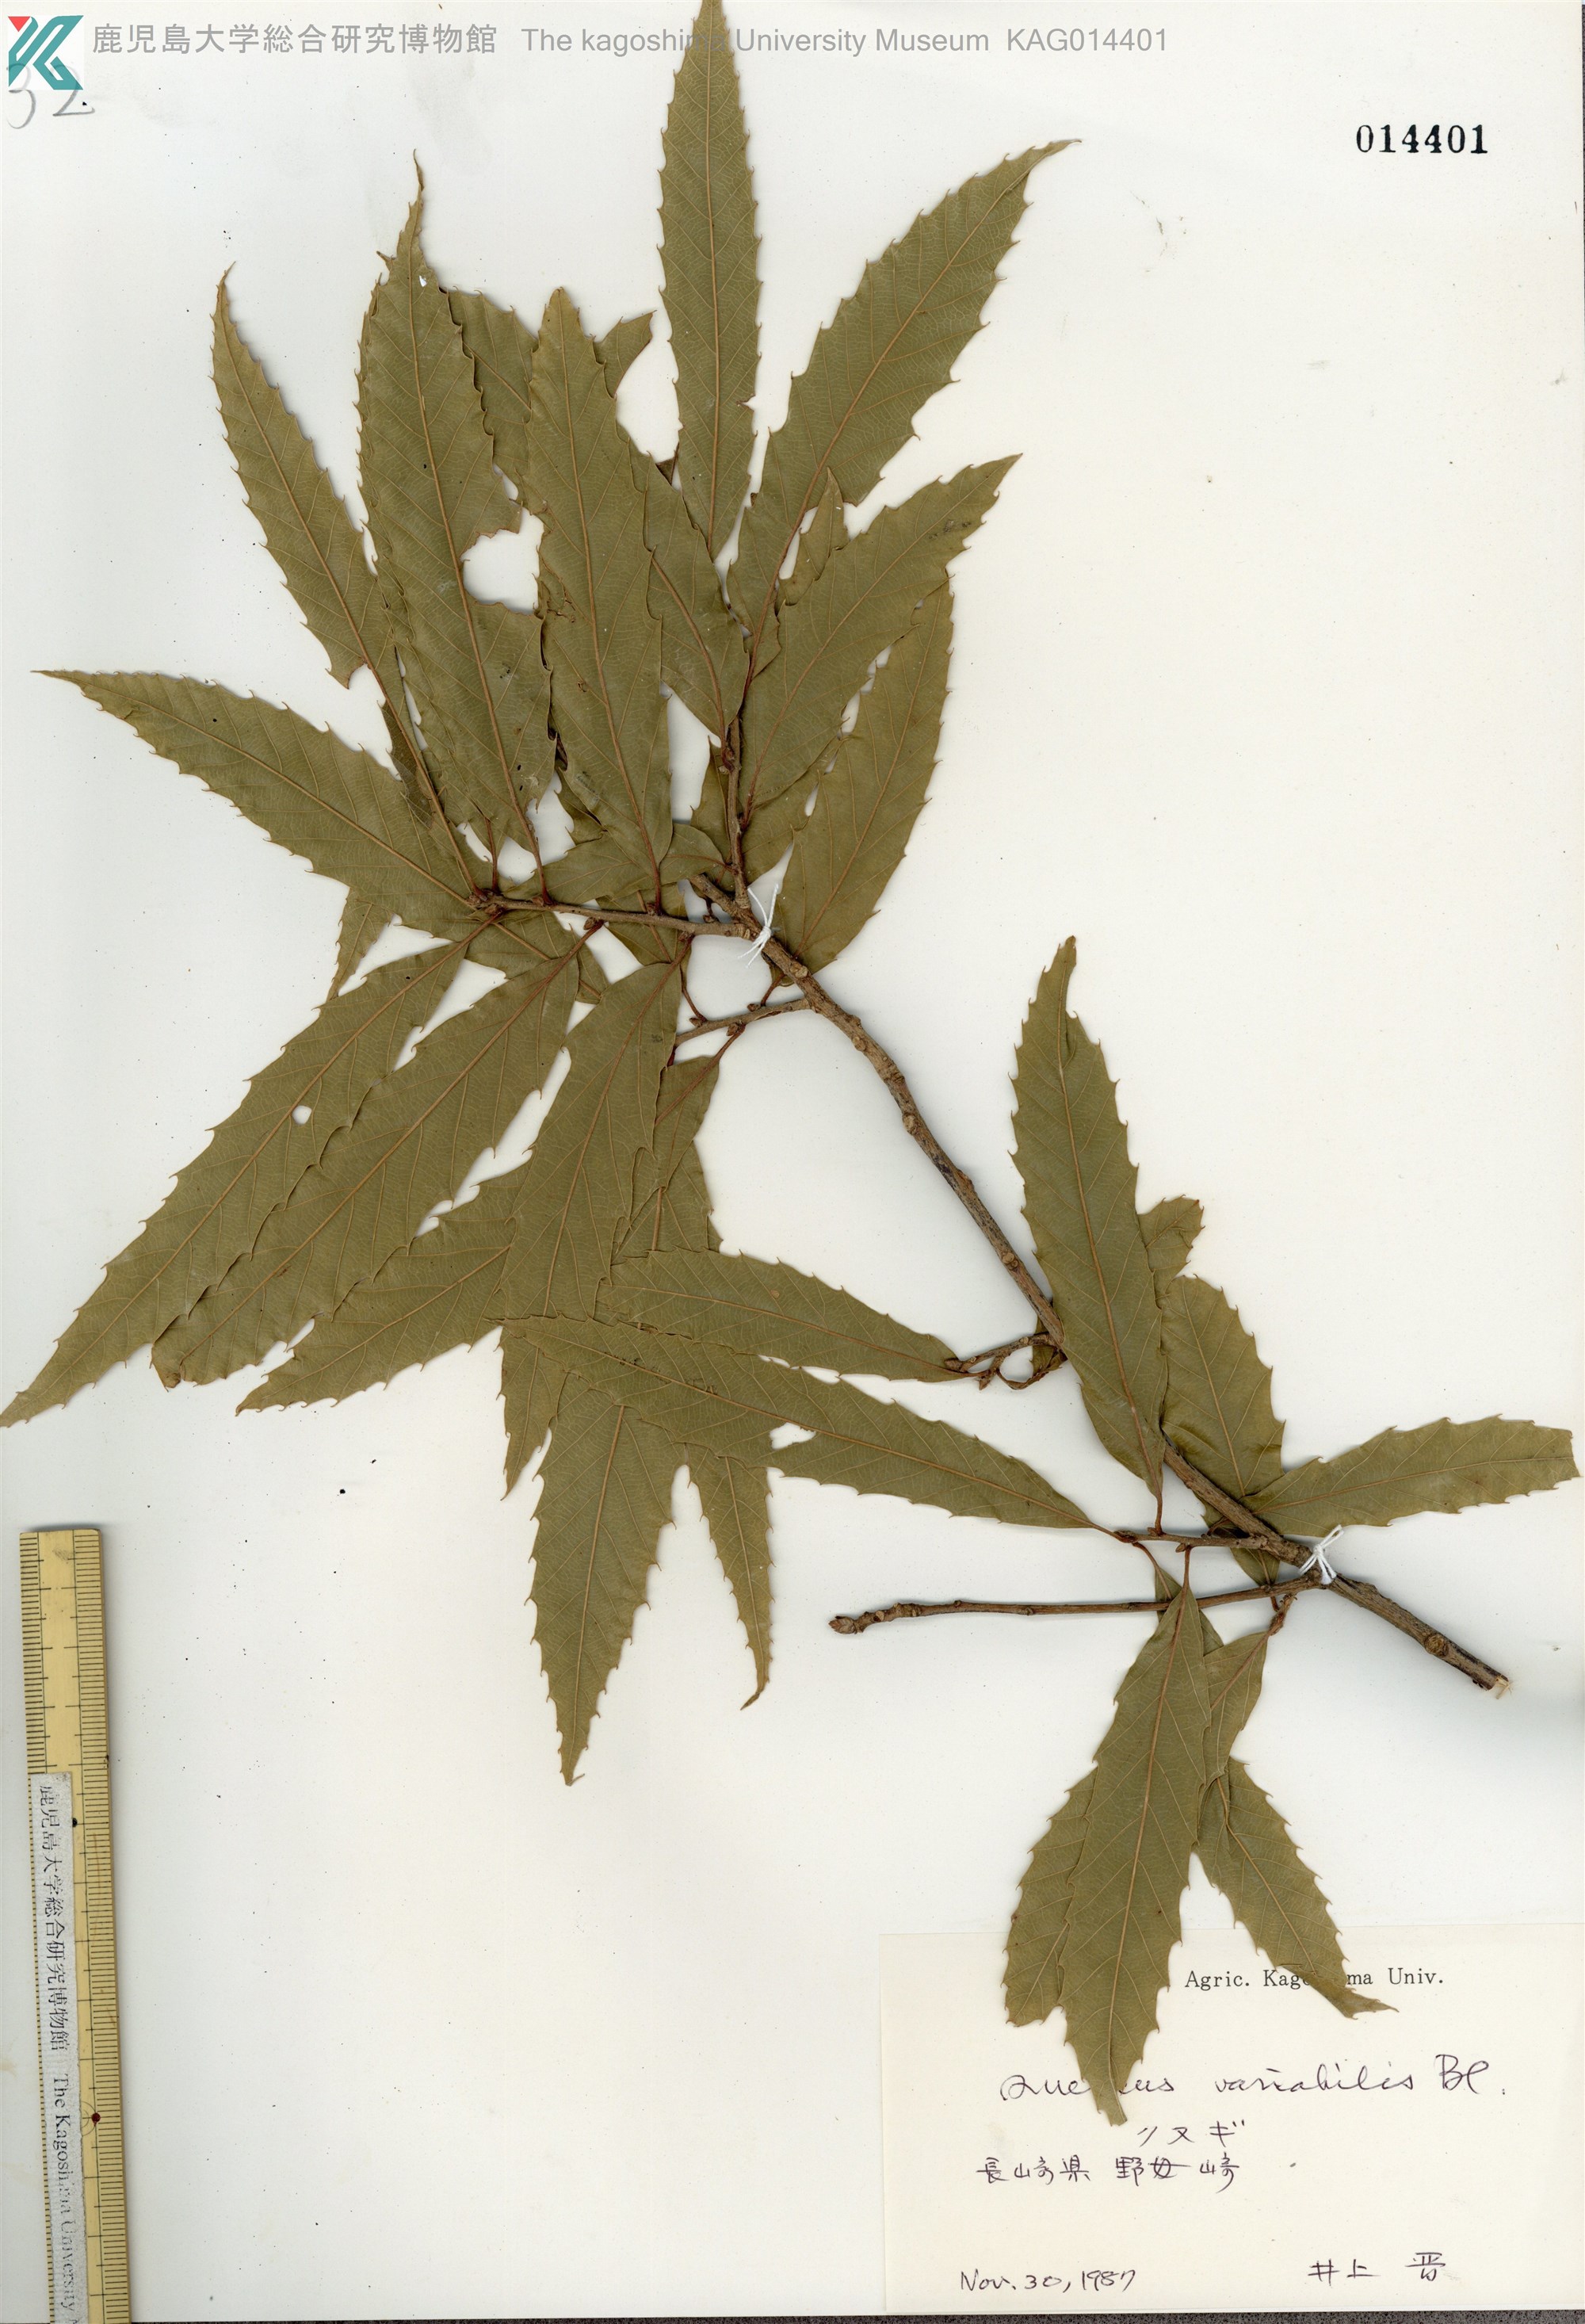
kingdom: Plantae
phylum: Tracheophyta
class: Magnoliopsida
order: Fagales
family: Fagaceae
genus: Quercus
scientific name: Quercus variabilis
